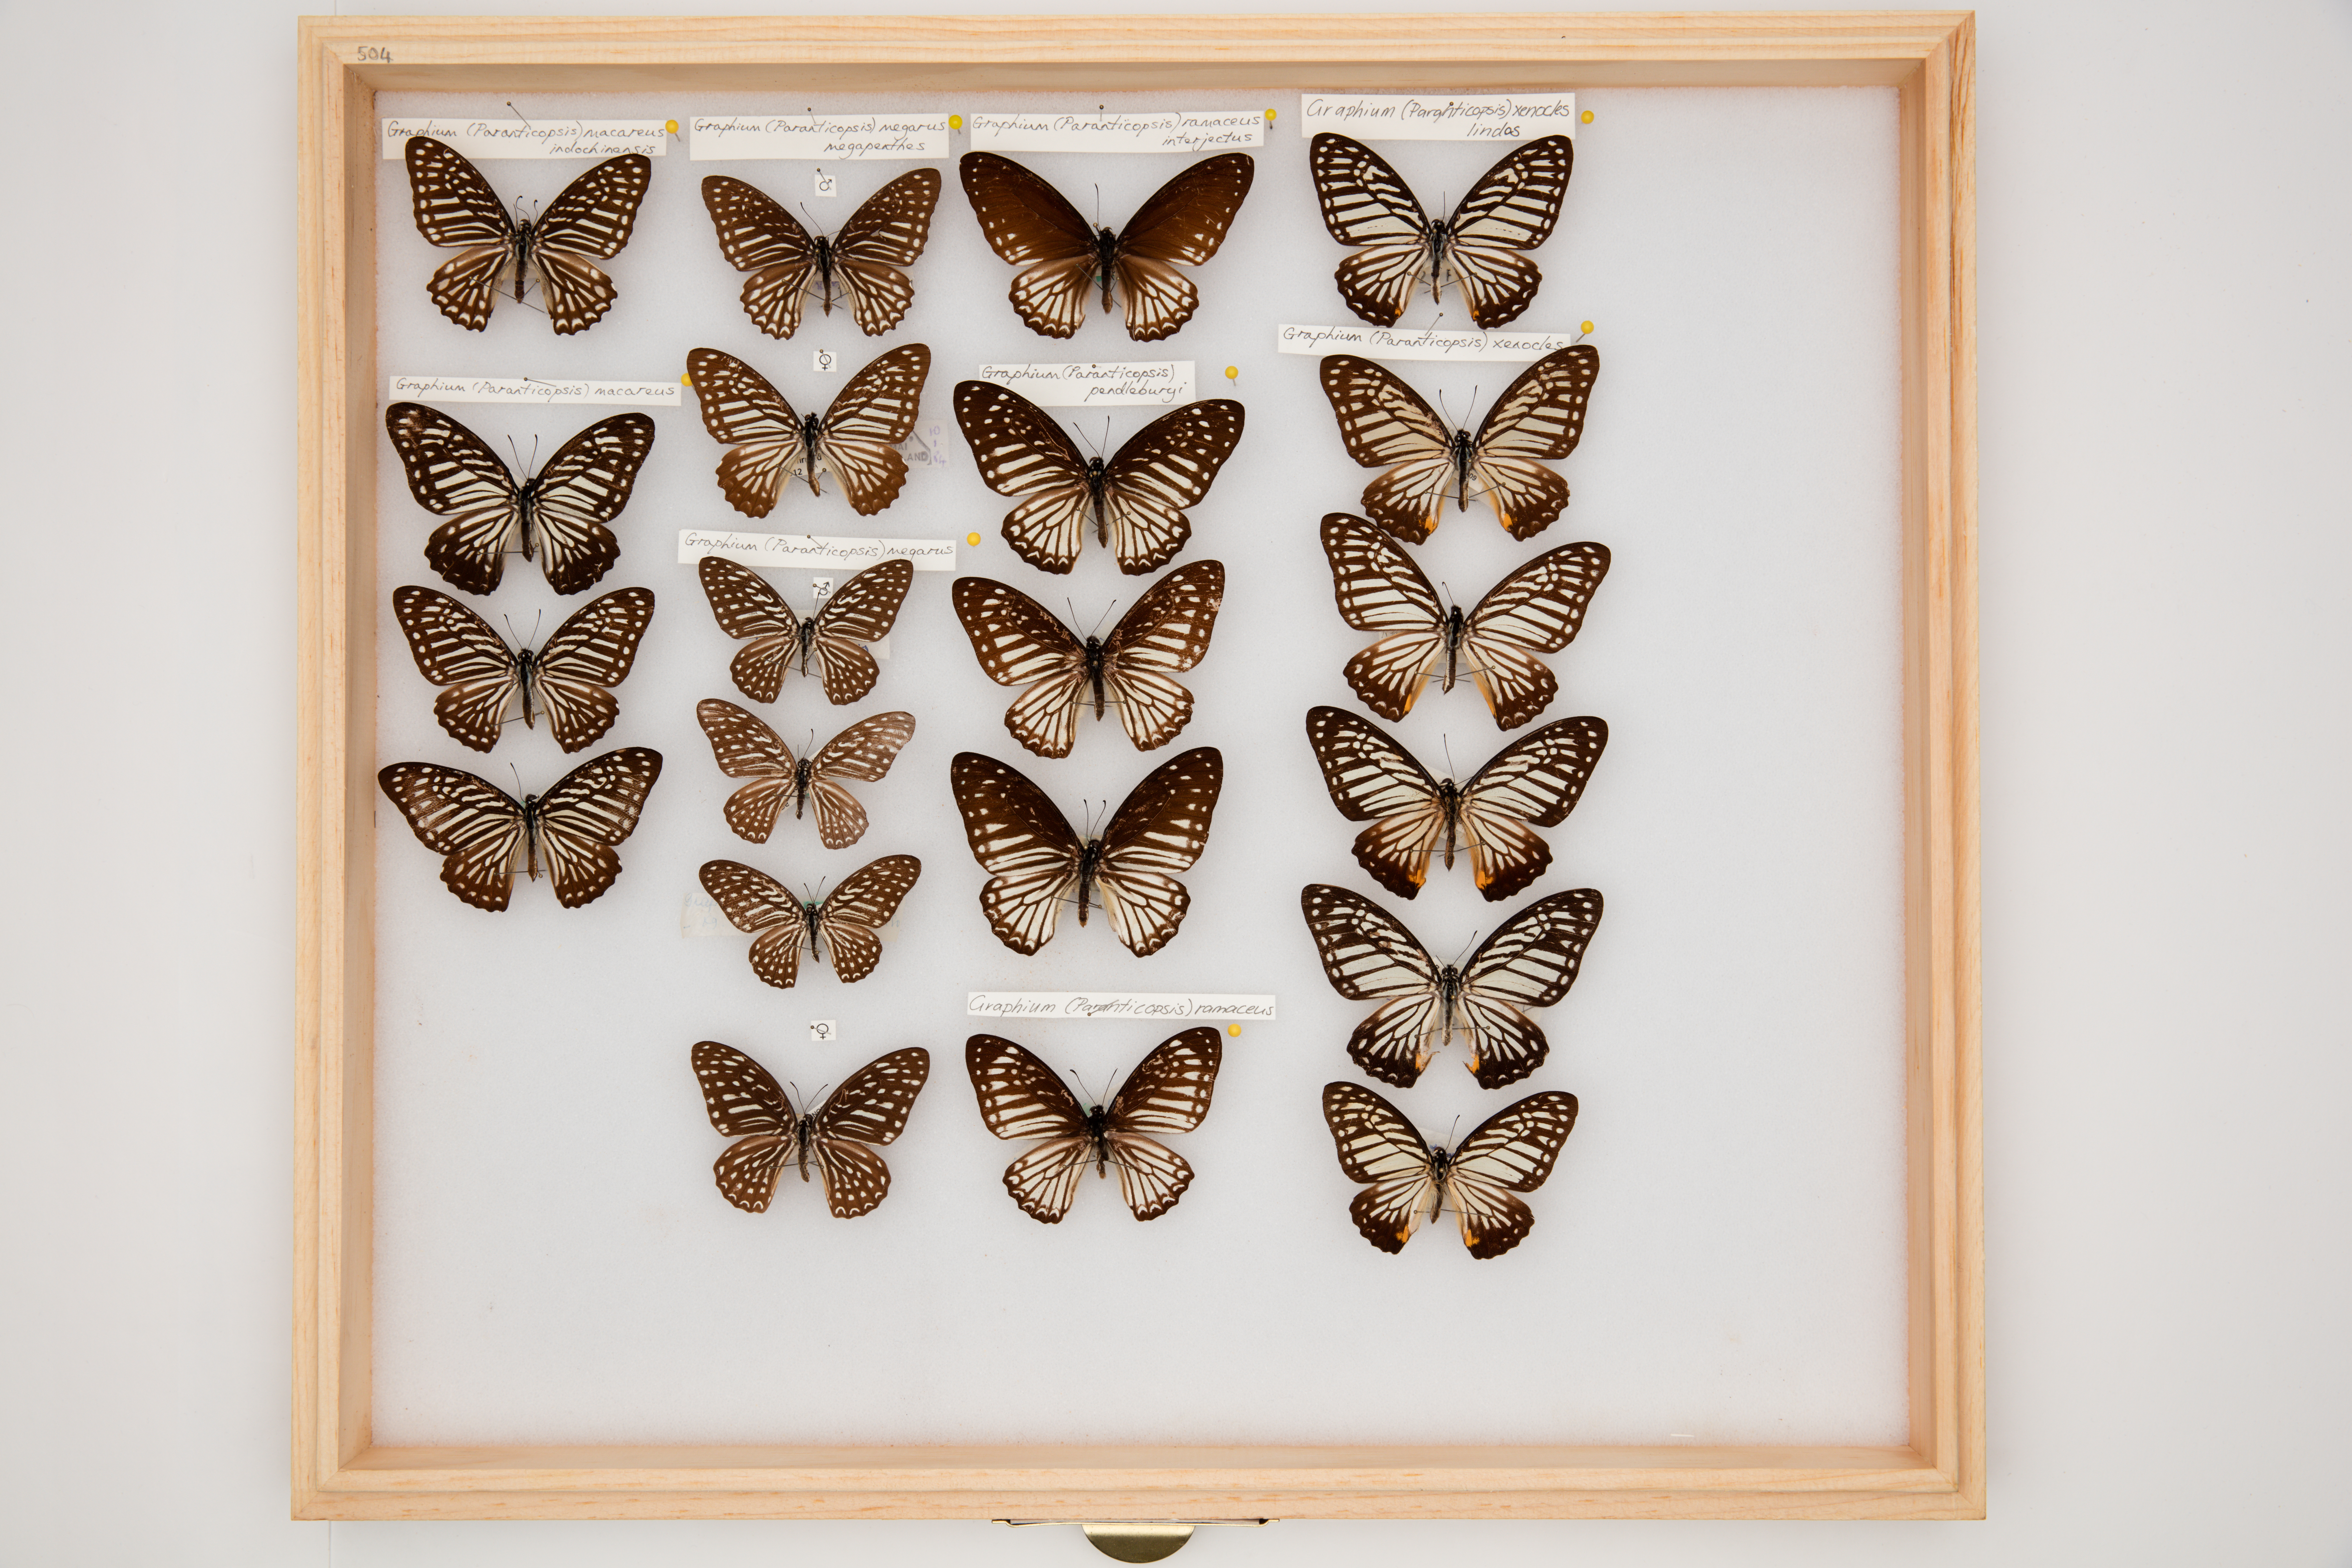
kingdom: Animalia
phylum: Arthropoda
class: Insecta
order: Lepidoptera
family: Papilionidae
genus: Graphium
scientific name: Graphium megarus
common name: Spotted zebra
